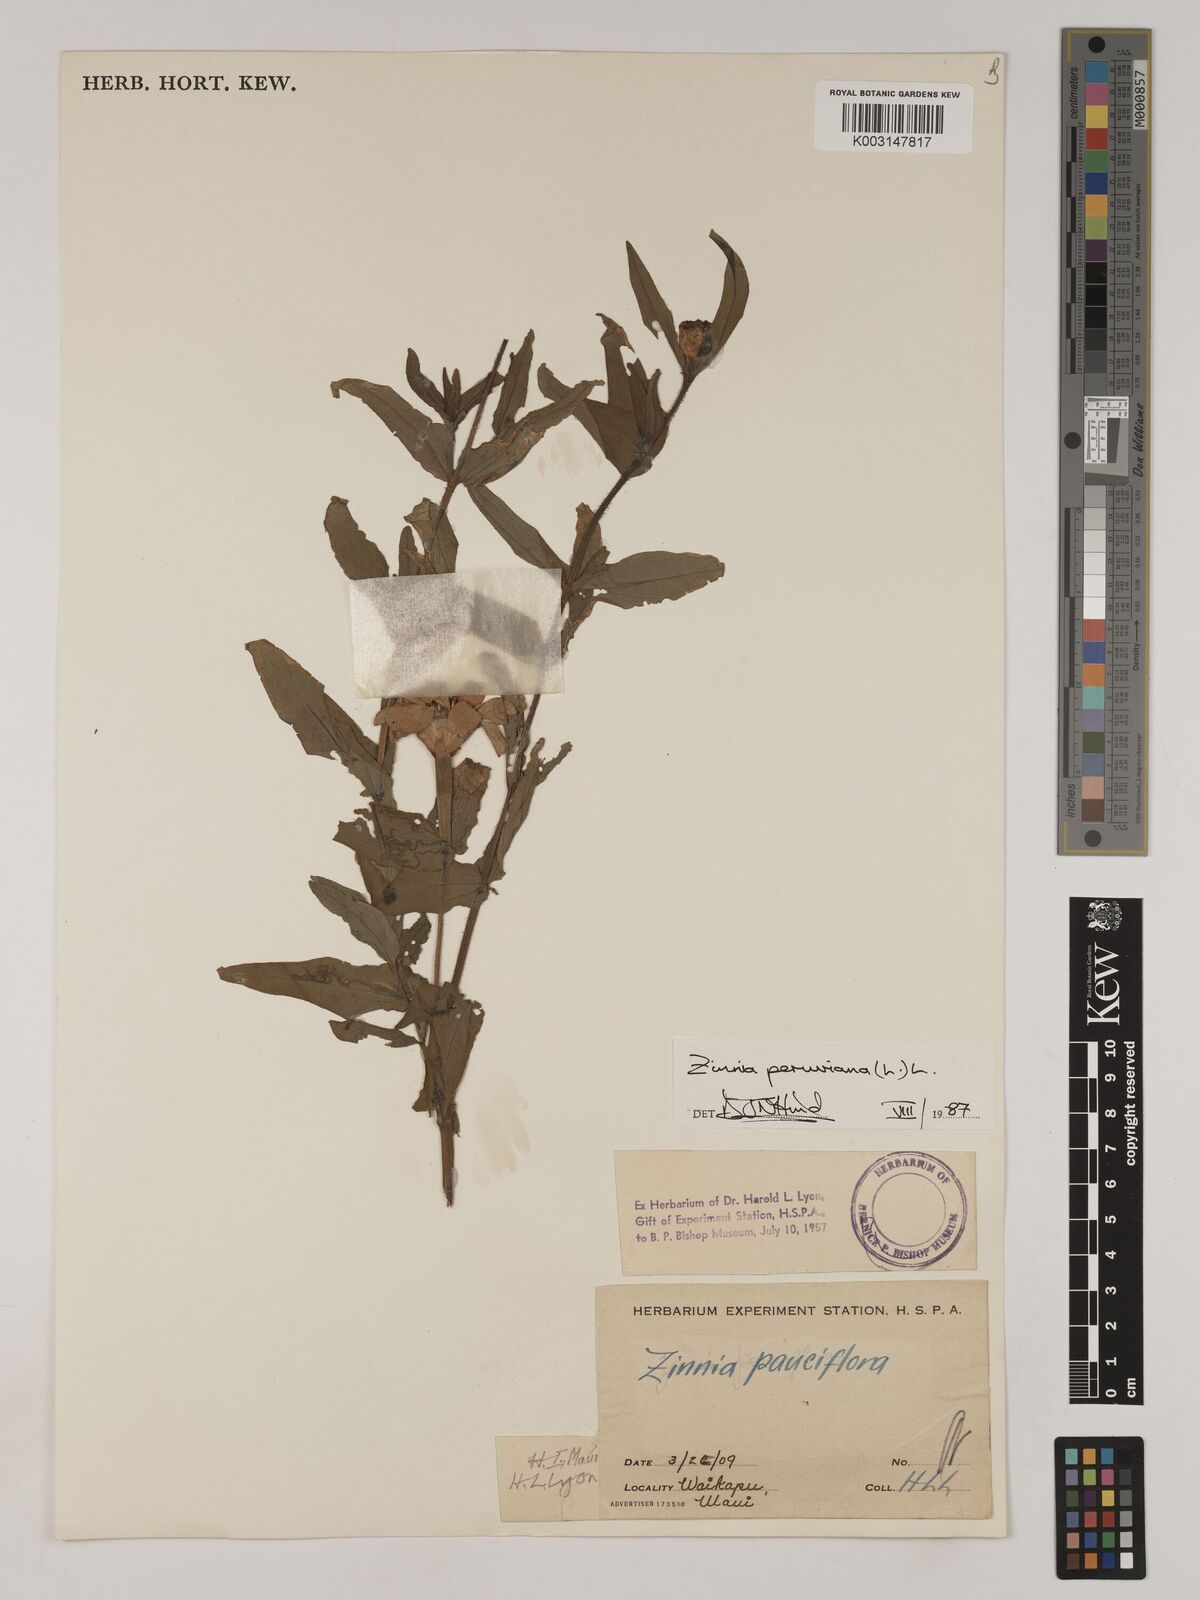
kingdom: Plantae
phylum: Tracheophyta
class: Magnoliopsida
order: Asterales
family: Asteraceae
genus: Zinnia
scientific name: Zinnia peruviana
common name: Peruvian zinnia
